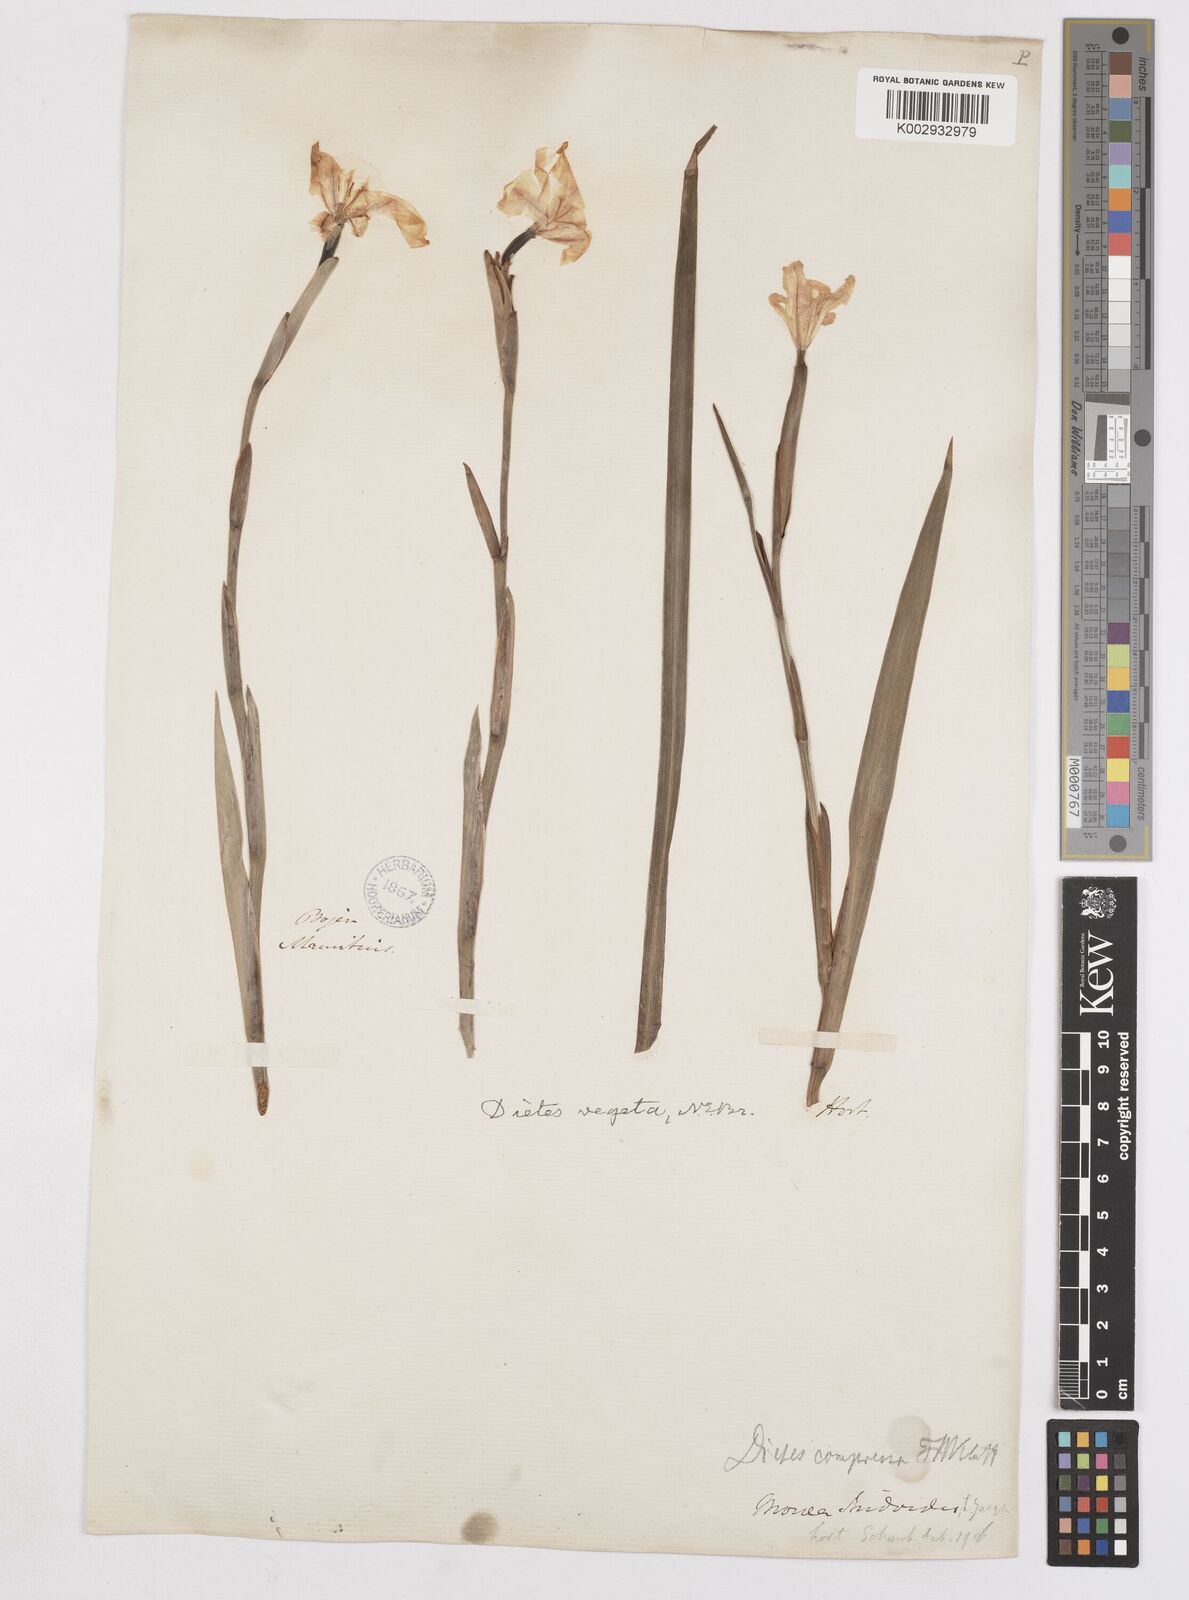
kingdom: Plantae
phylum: Tracheophyta
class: Liliopsida
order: Asparagales
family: Iridaceae
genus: Dietes
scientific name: Dietes iridioides
